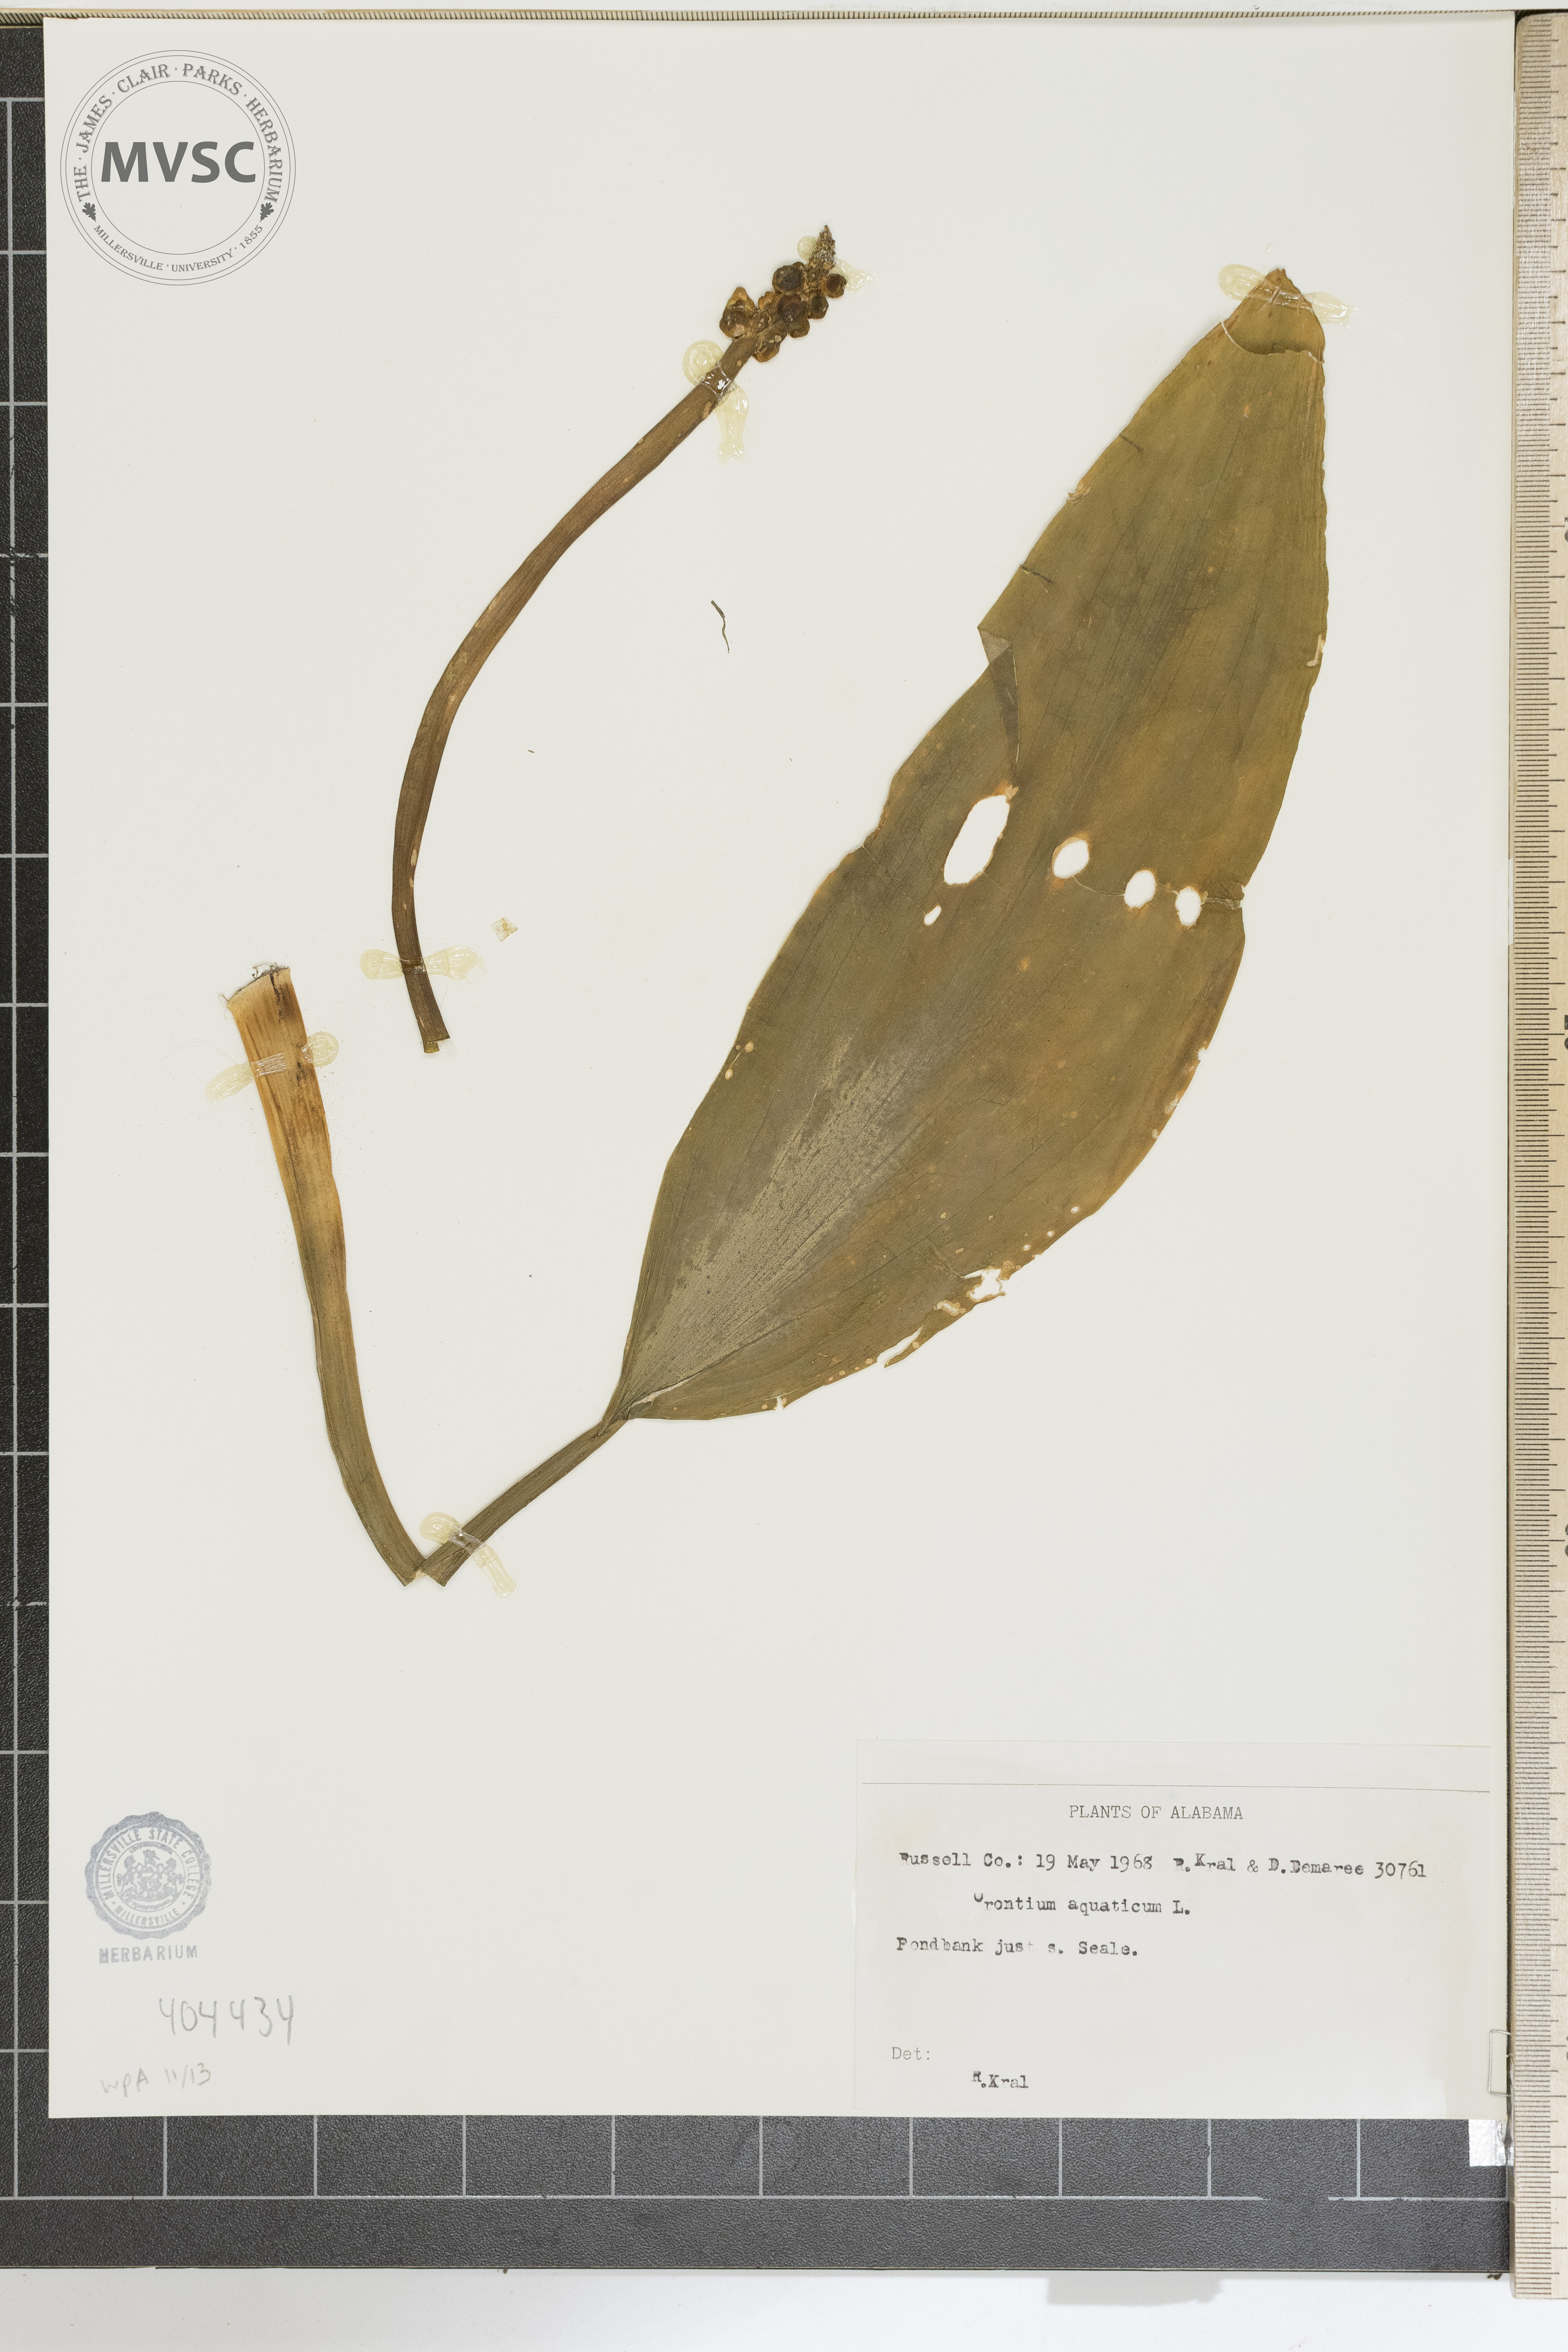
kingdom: Plantae
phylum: Tracheophyta
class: Liliopsida
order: Alismatales
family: Araceae
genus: Orontium
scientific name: Orontium aquaticum
